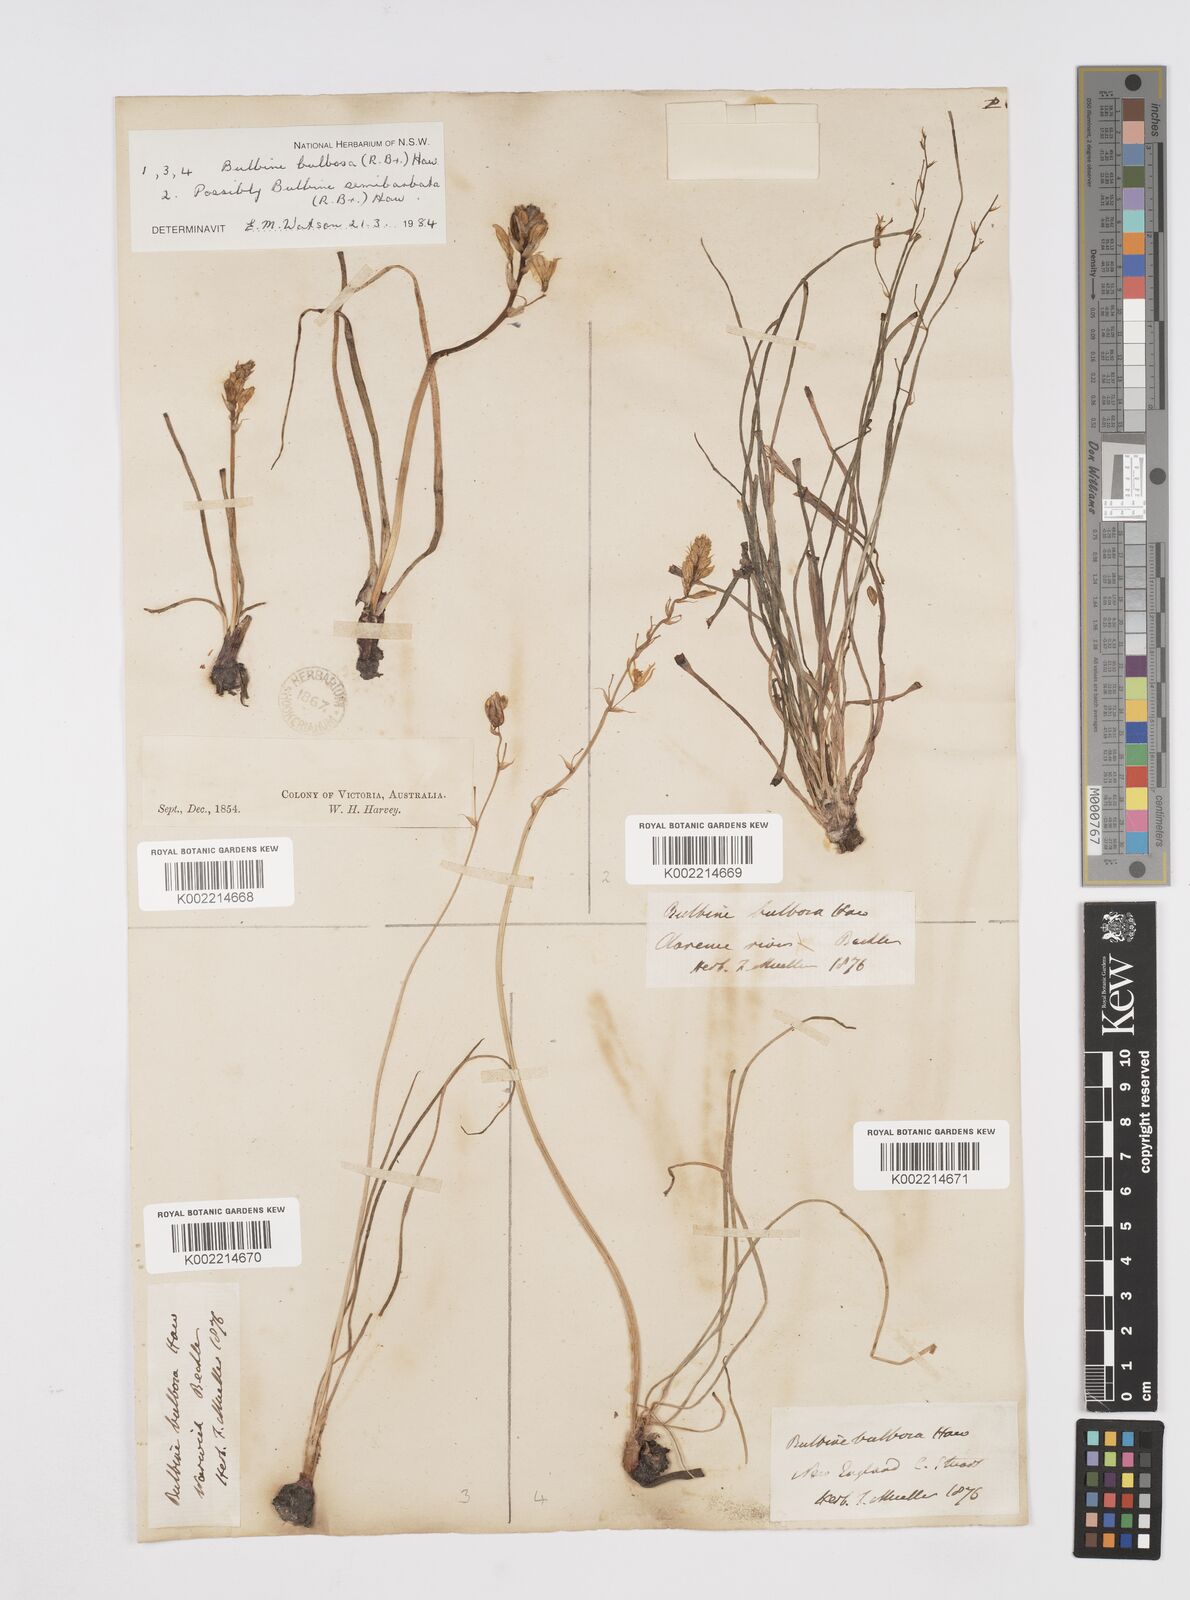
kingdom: Plantae
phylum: Tracheophyta
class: Liliopsida
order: Asparagales
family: Asphodelaceae
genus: Bulbine
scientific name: Bulbine bulbosa
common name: Golden-lily
